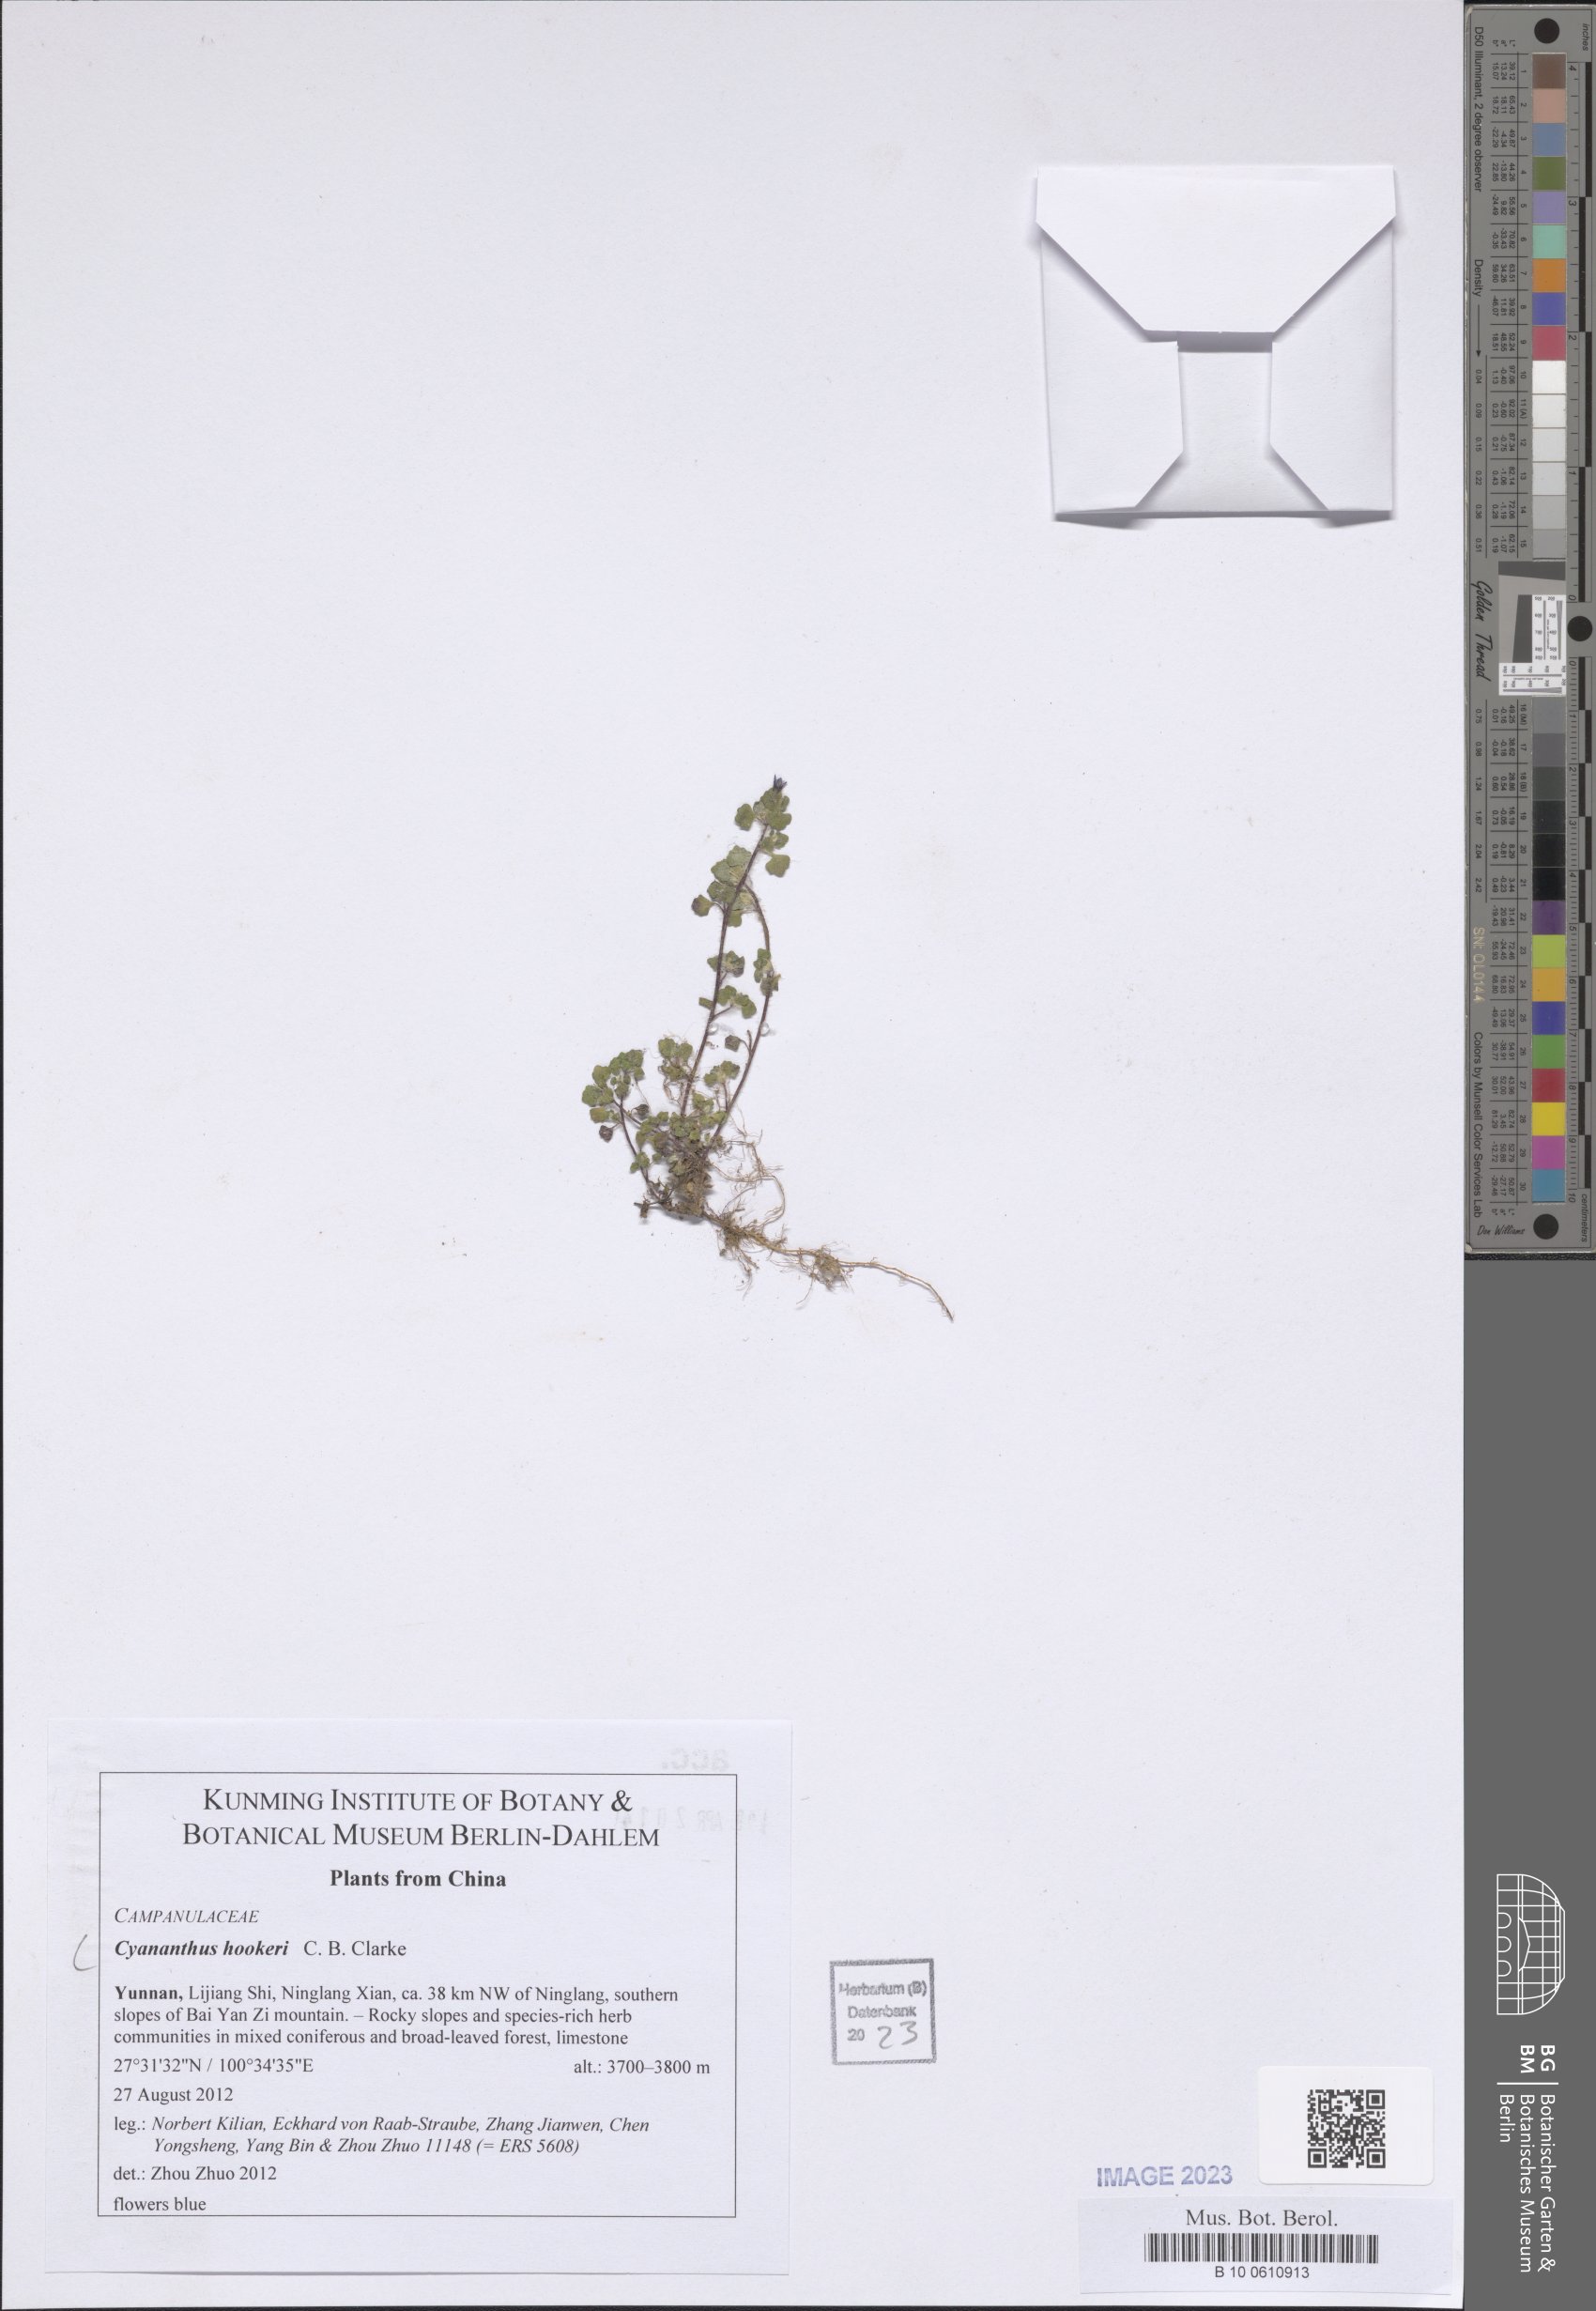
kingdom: Plantae
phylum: Tracheophyta
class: Magnoliopsida
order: Asterales
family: Campanulaceae
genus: Cyananthus
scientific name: Cyananthus hookeri
